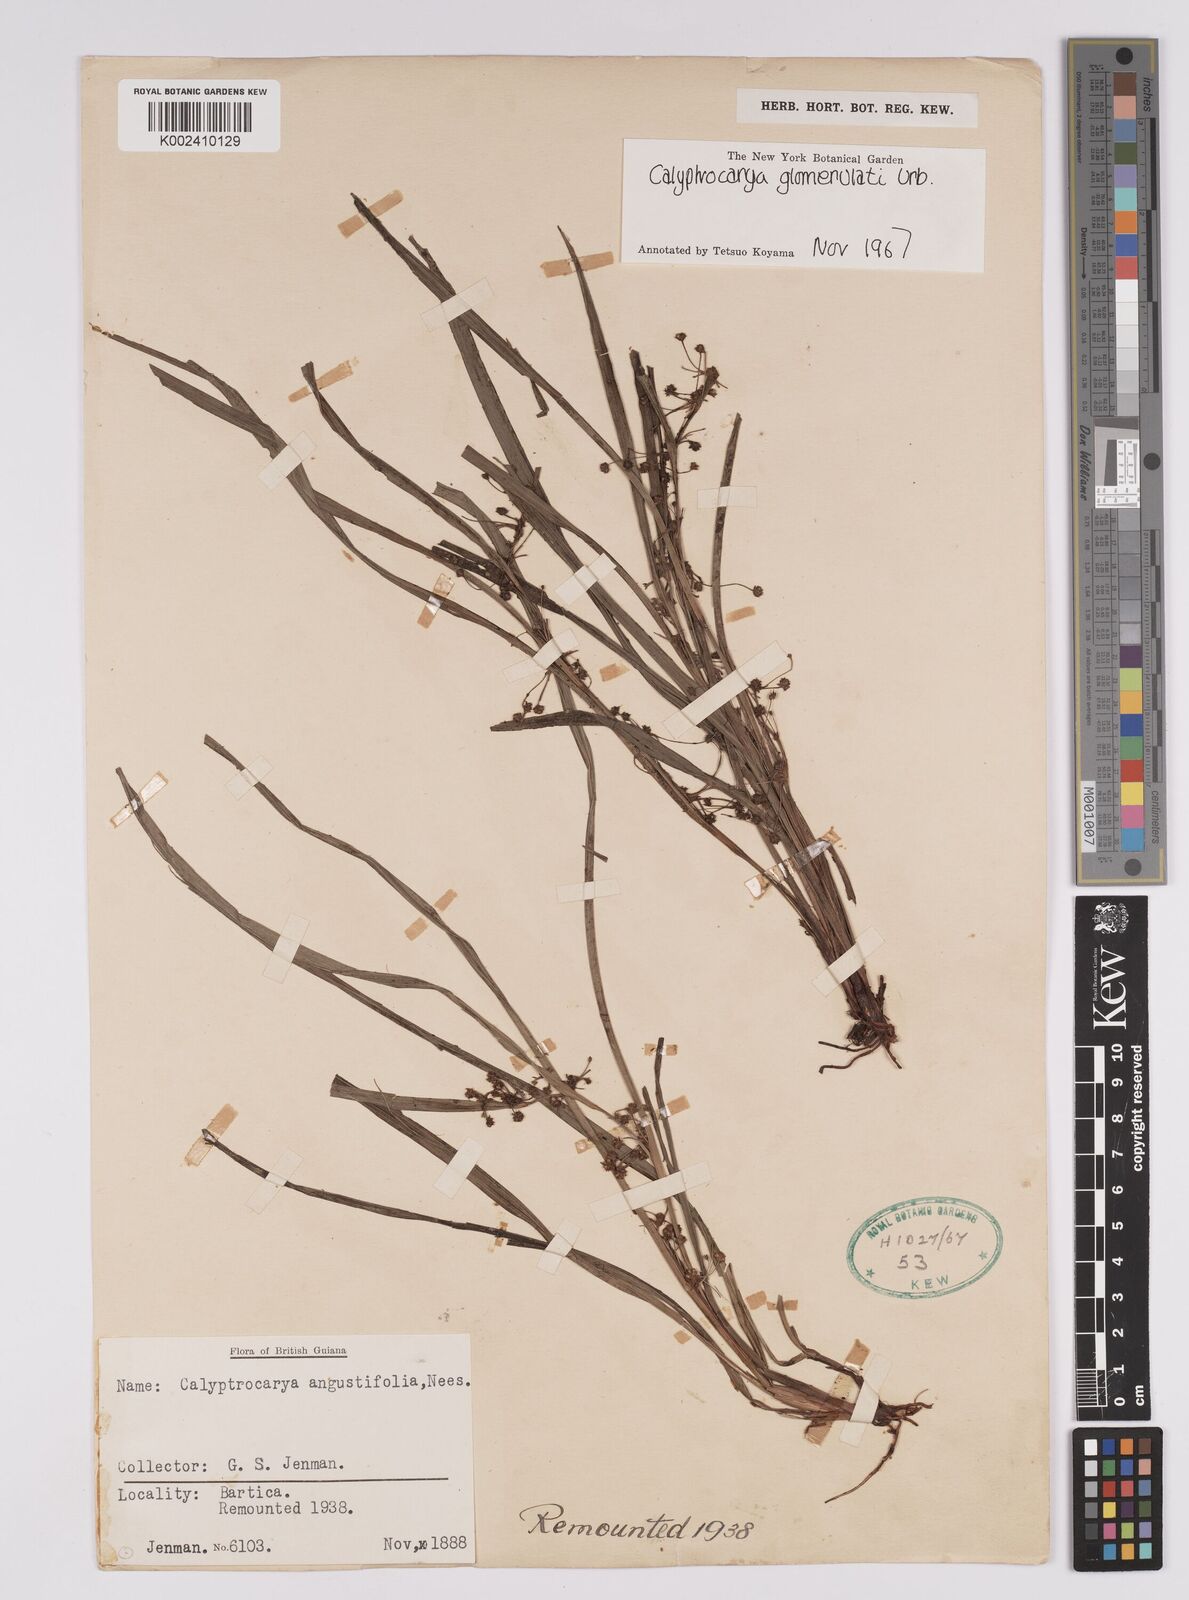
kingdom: Plantae
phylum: Tracheophyta
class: Liliopsida
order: Poales
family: Cyperaceae
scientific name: Cyperaceae
